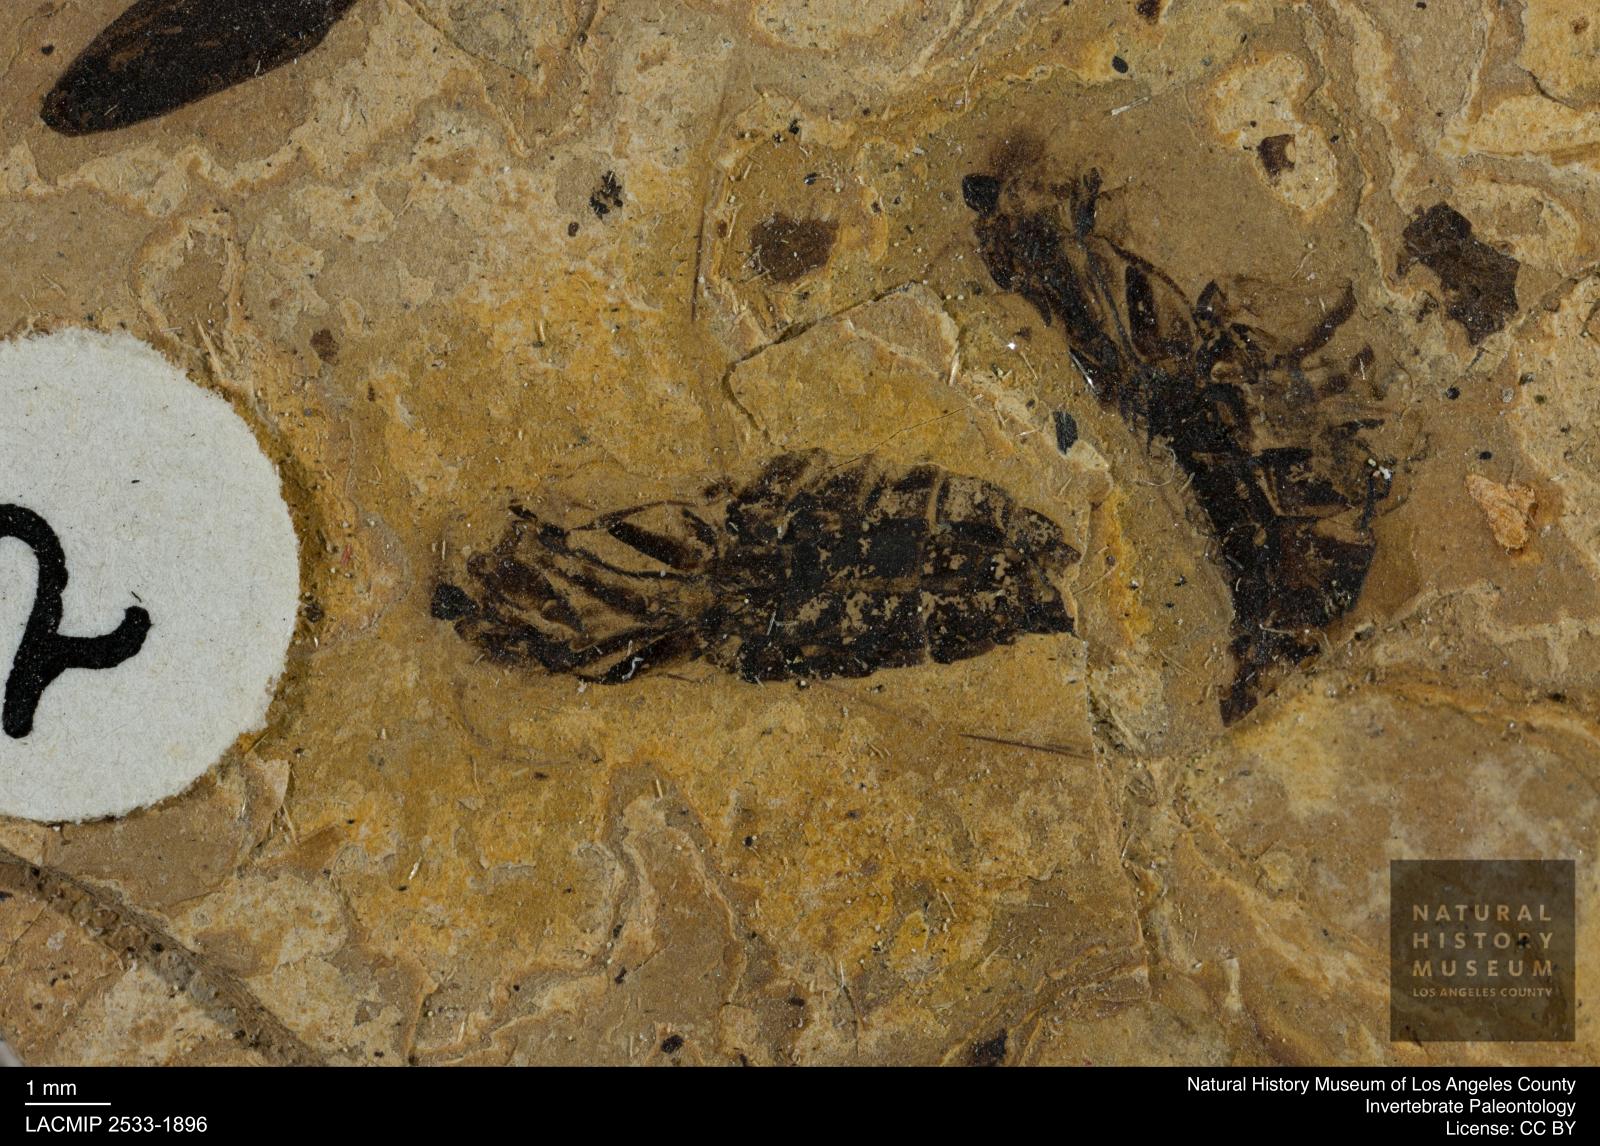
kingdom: Animalia
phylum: Arthropoda
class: Insecta
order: Hemiptera
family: Notonectidae
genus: Anisops
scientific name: Anisops Notonecta deichmuelleri
